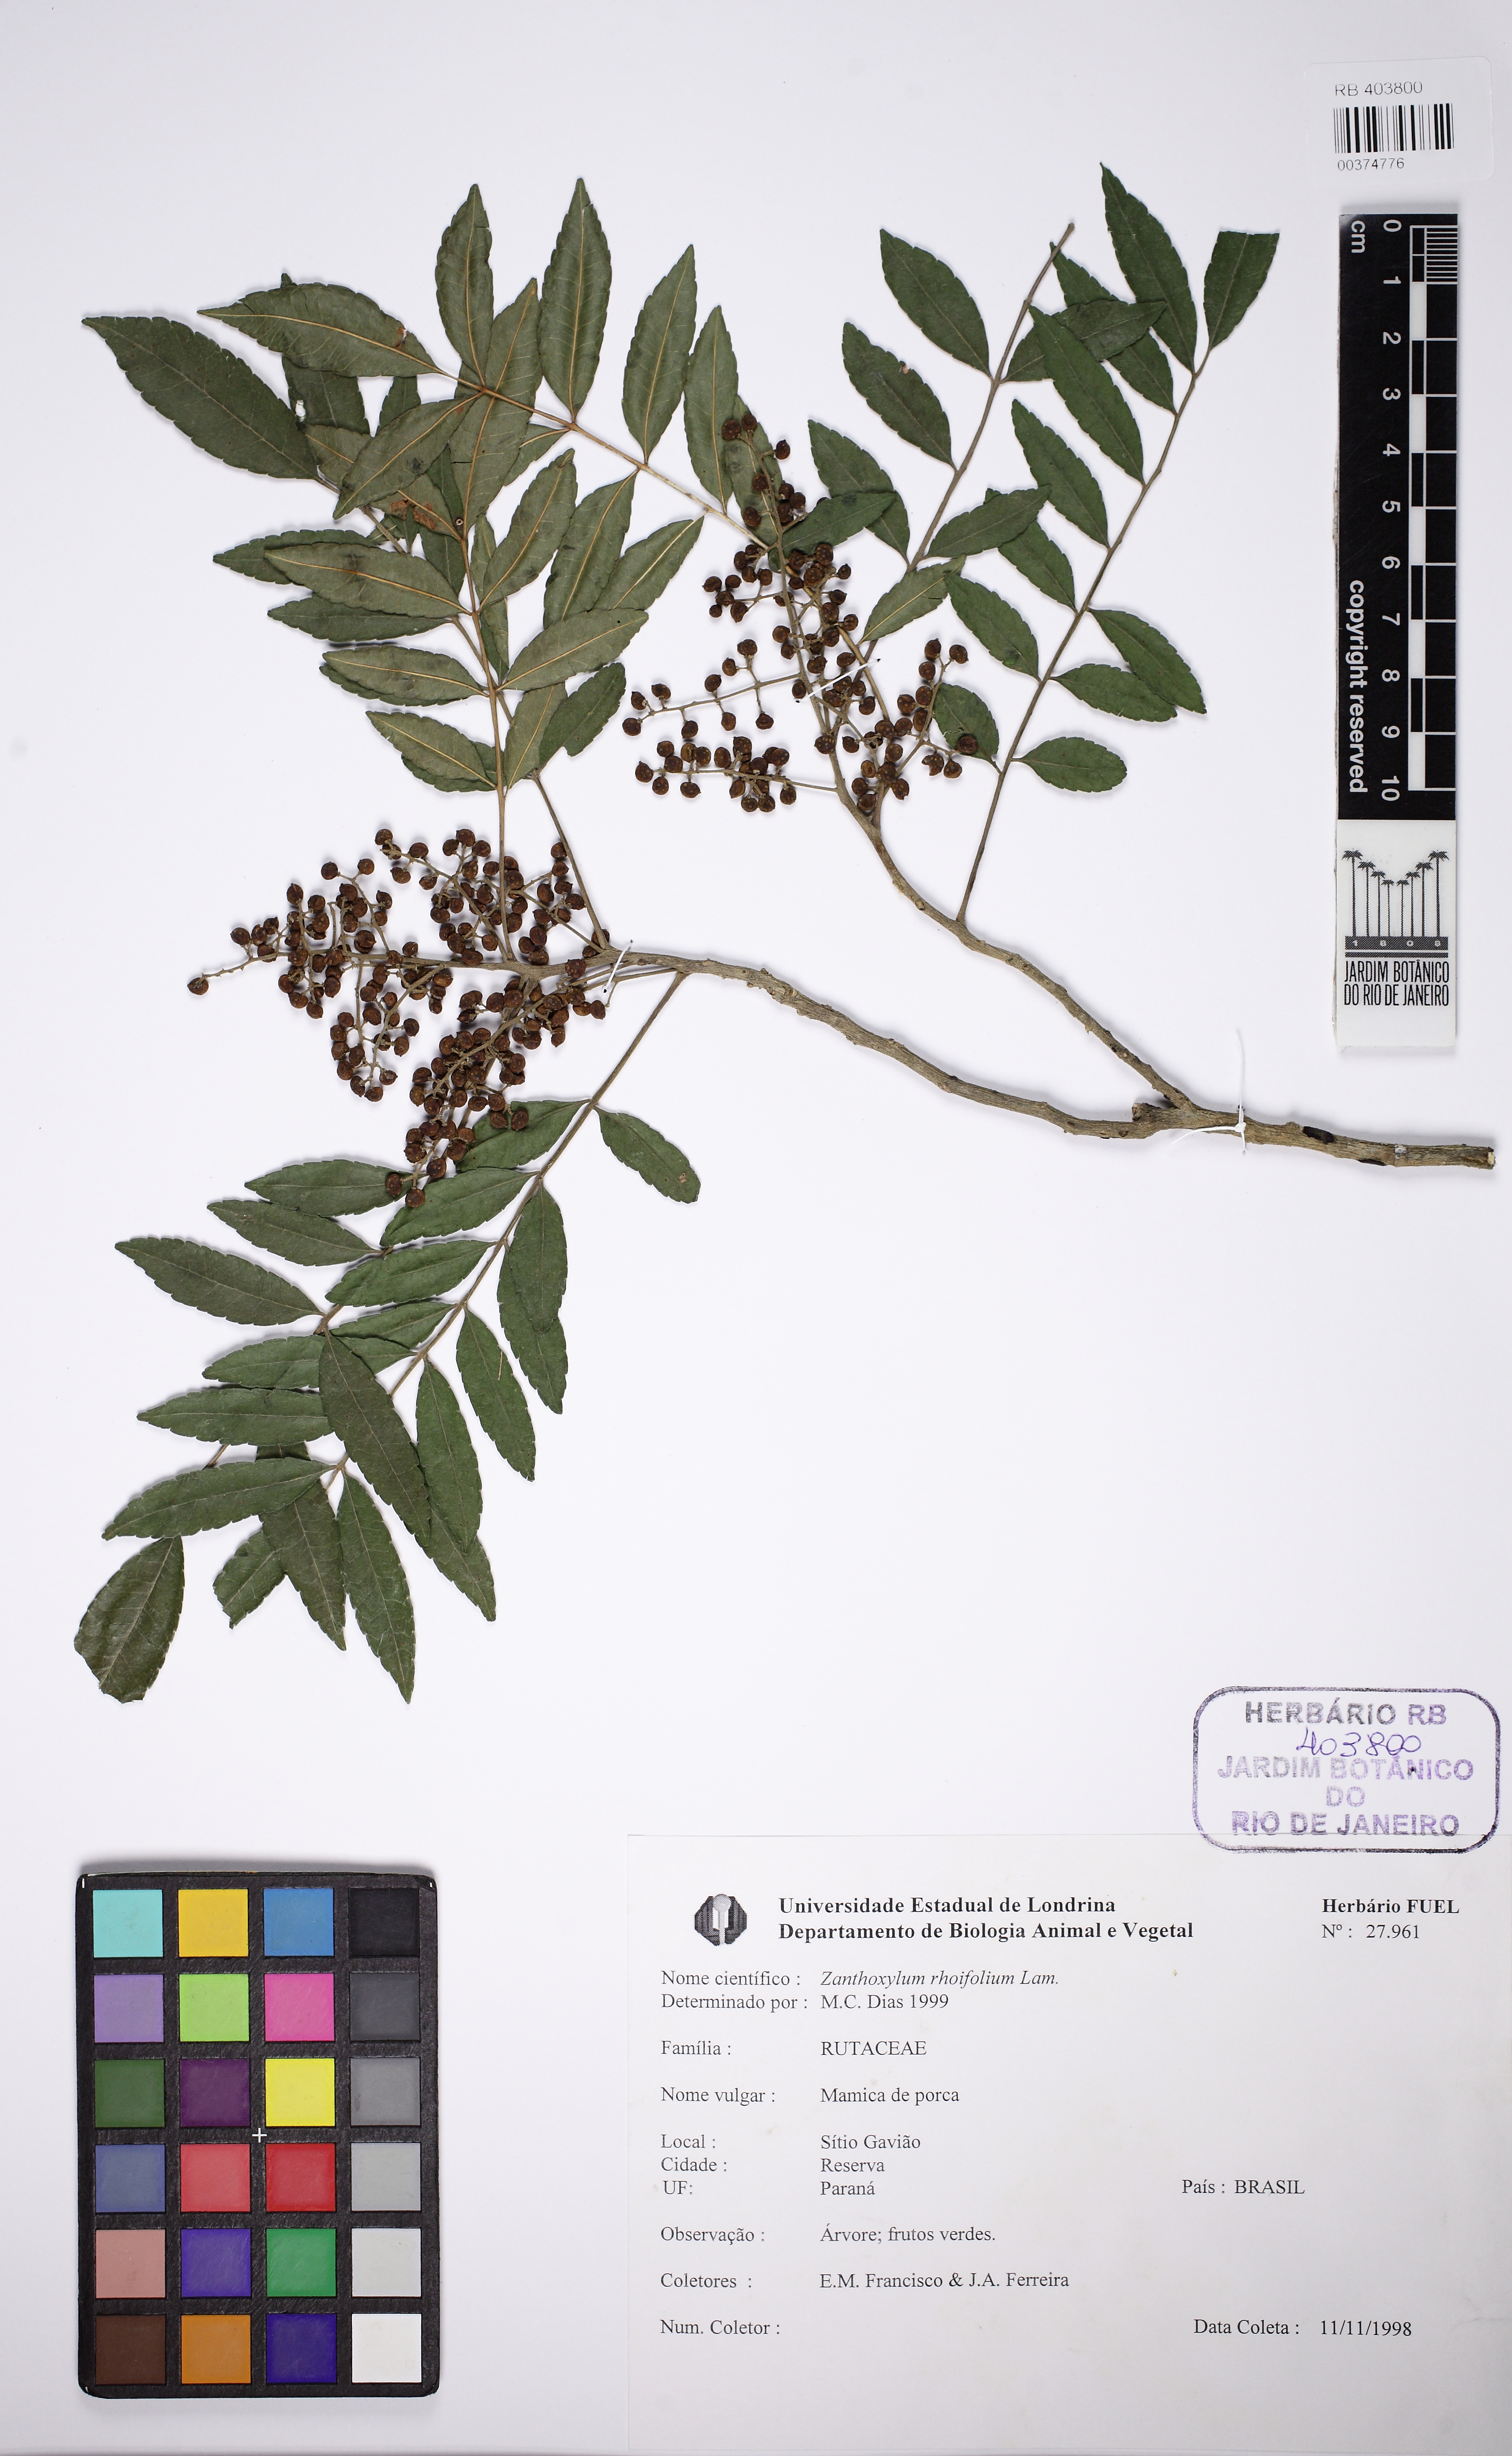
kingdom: Plantae
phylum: Tracheophyta
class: Magnoliopsida
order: Sapindales
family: Rutaceae
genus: Zanthoxylum
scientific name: Zanthoxylum rhoifolium
